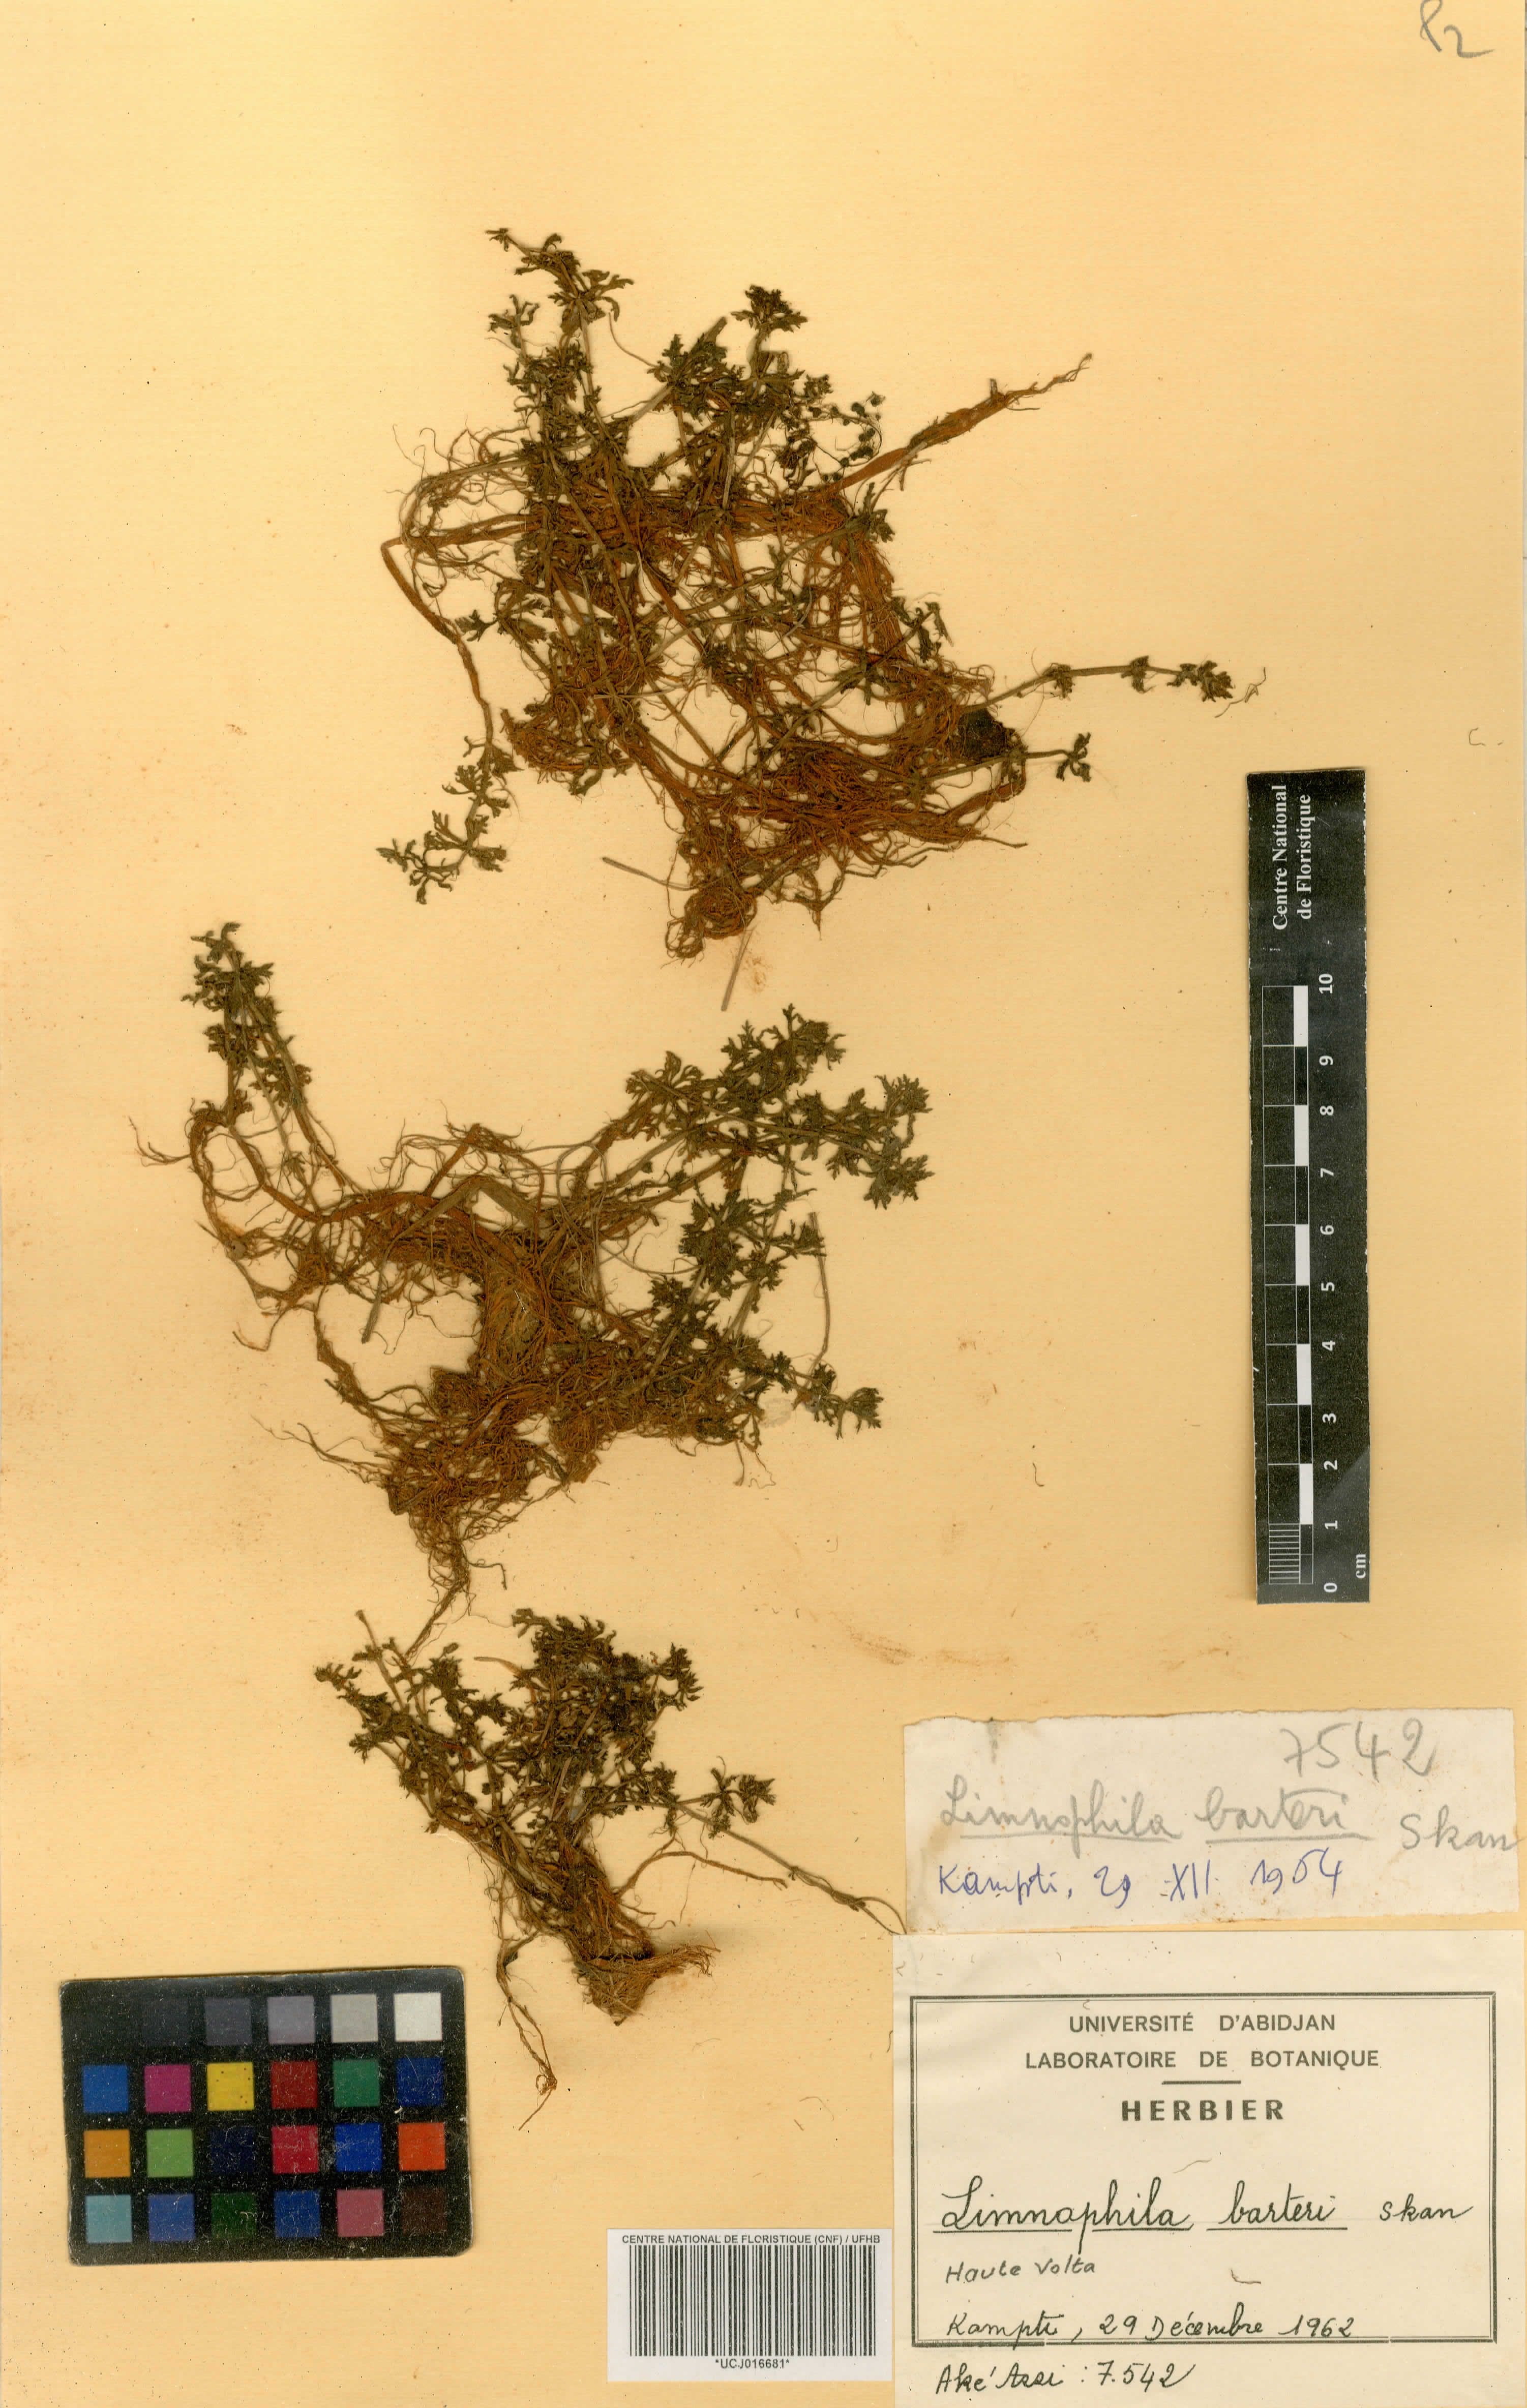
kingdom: Plantae
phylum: Tracheophyta
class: Magnoliopsida
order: Lamiales
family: Plantaginaceae
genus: Limnophila
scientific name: Limnophila barteri
